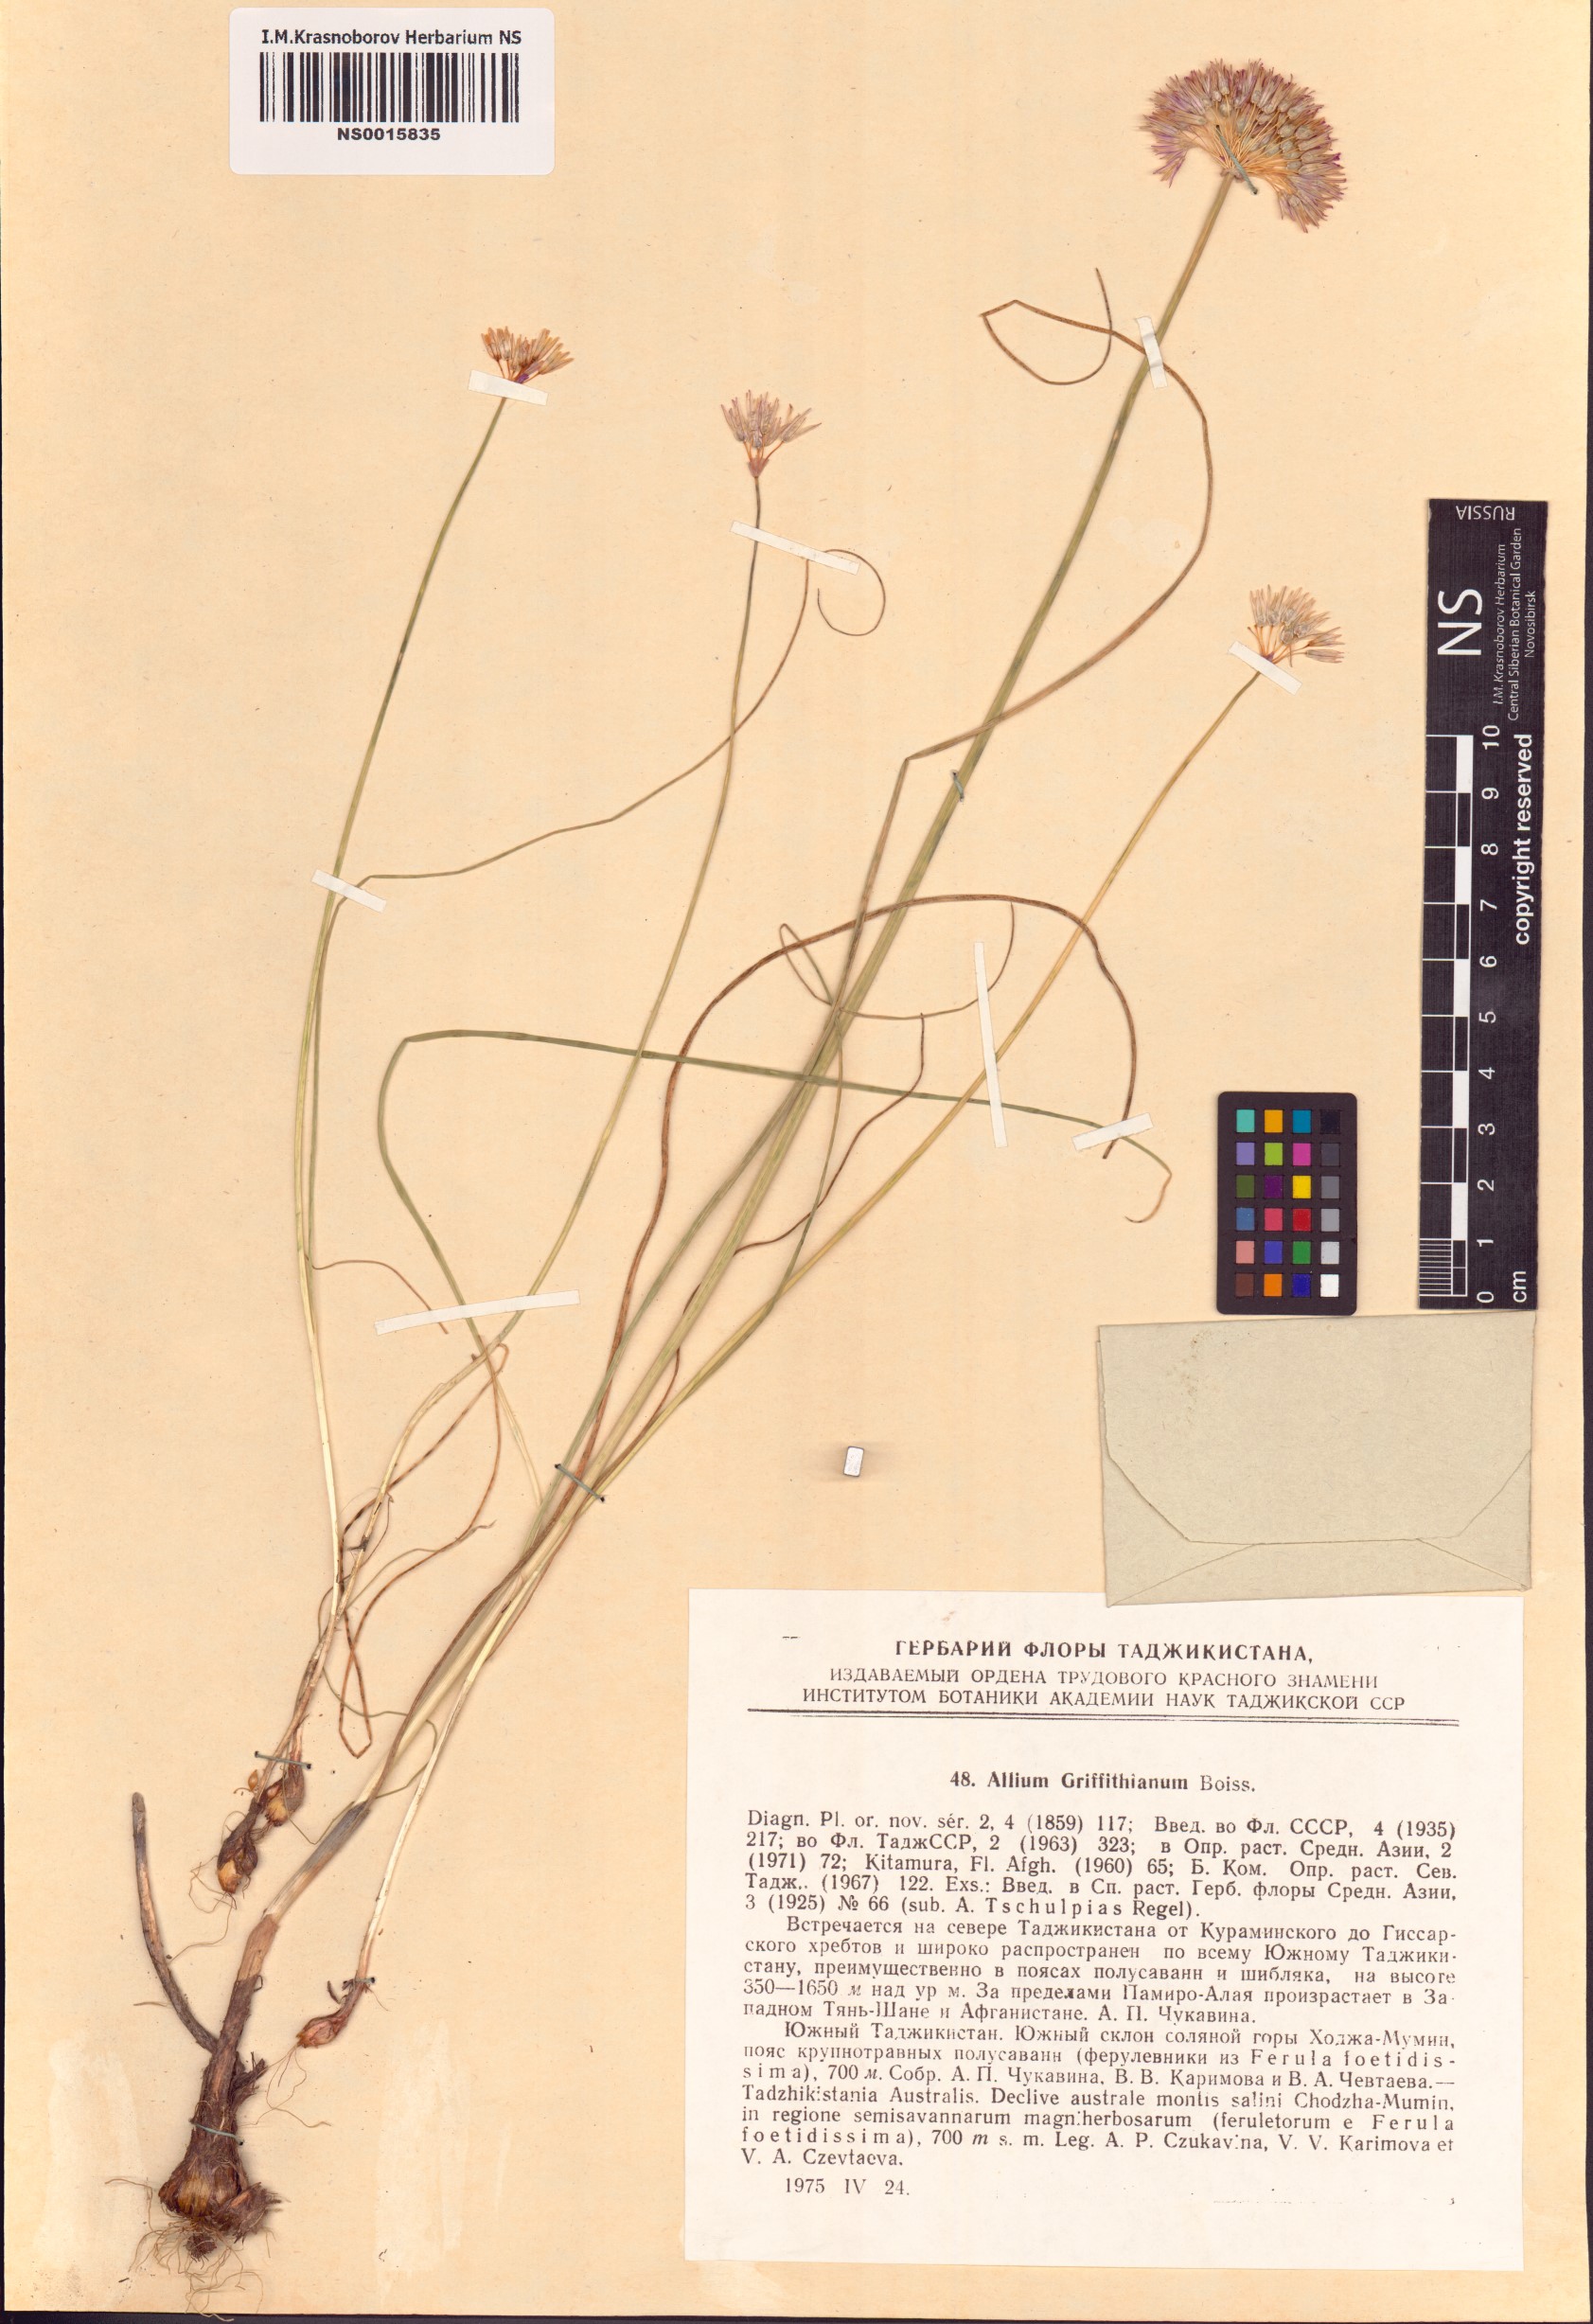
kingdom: Plantae
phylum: Tracheophyta
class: Liliopsida
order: Asparagales
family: Amaryllidaceae
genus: Allium
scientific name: Allium griffithianum
